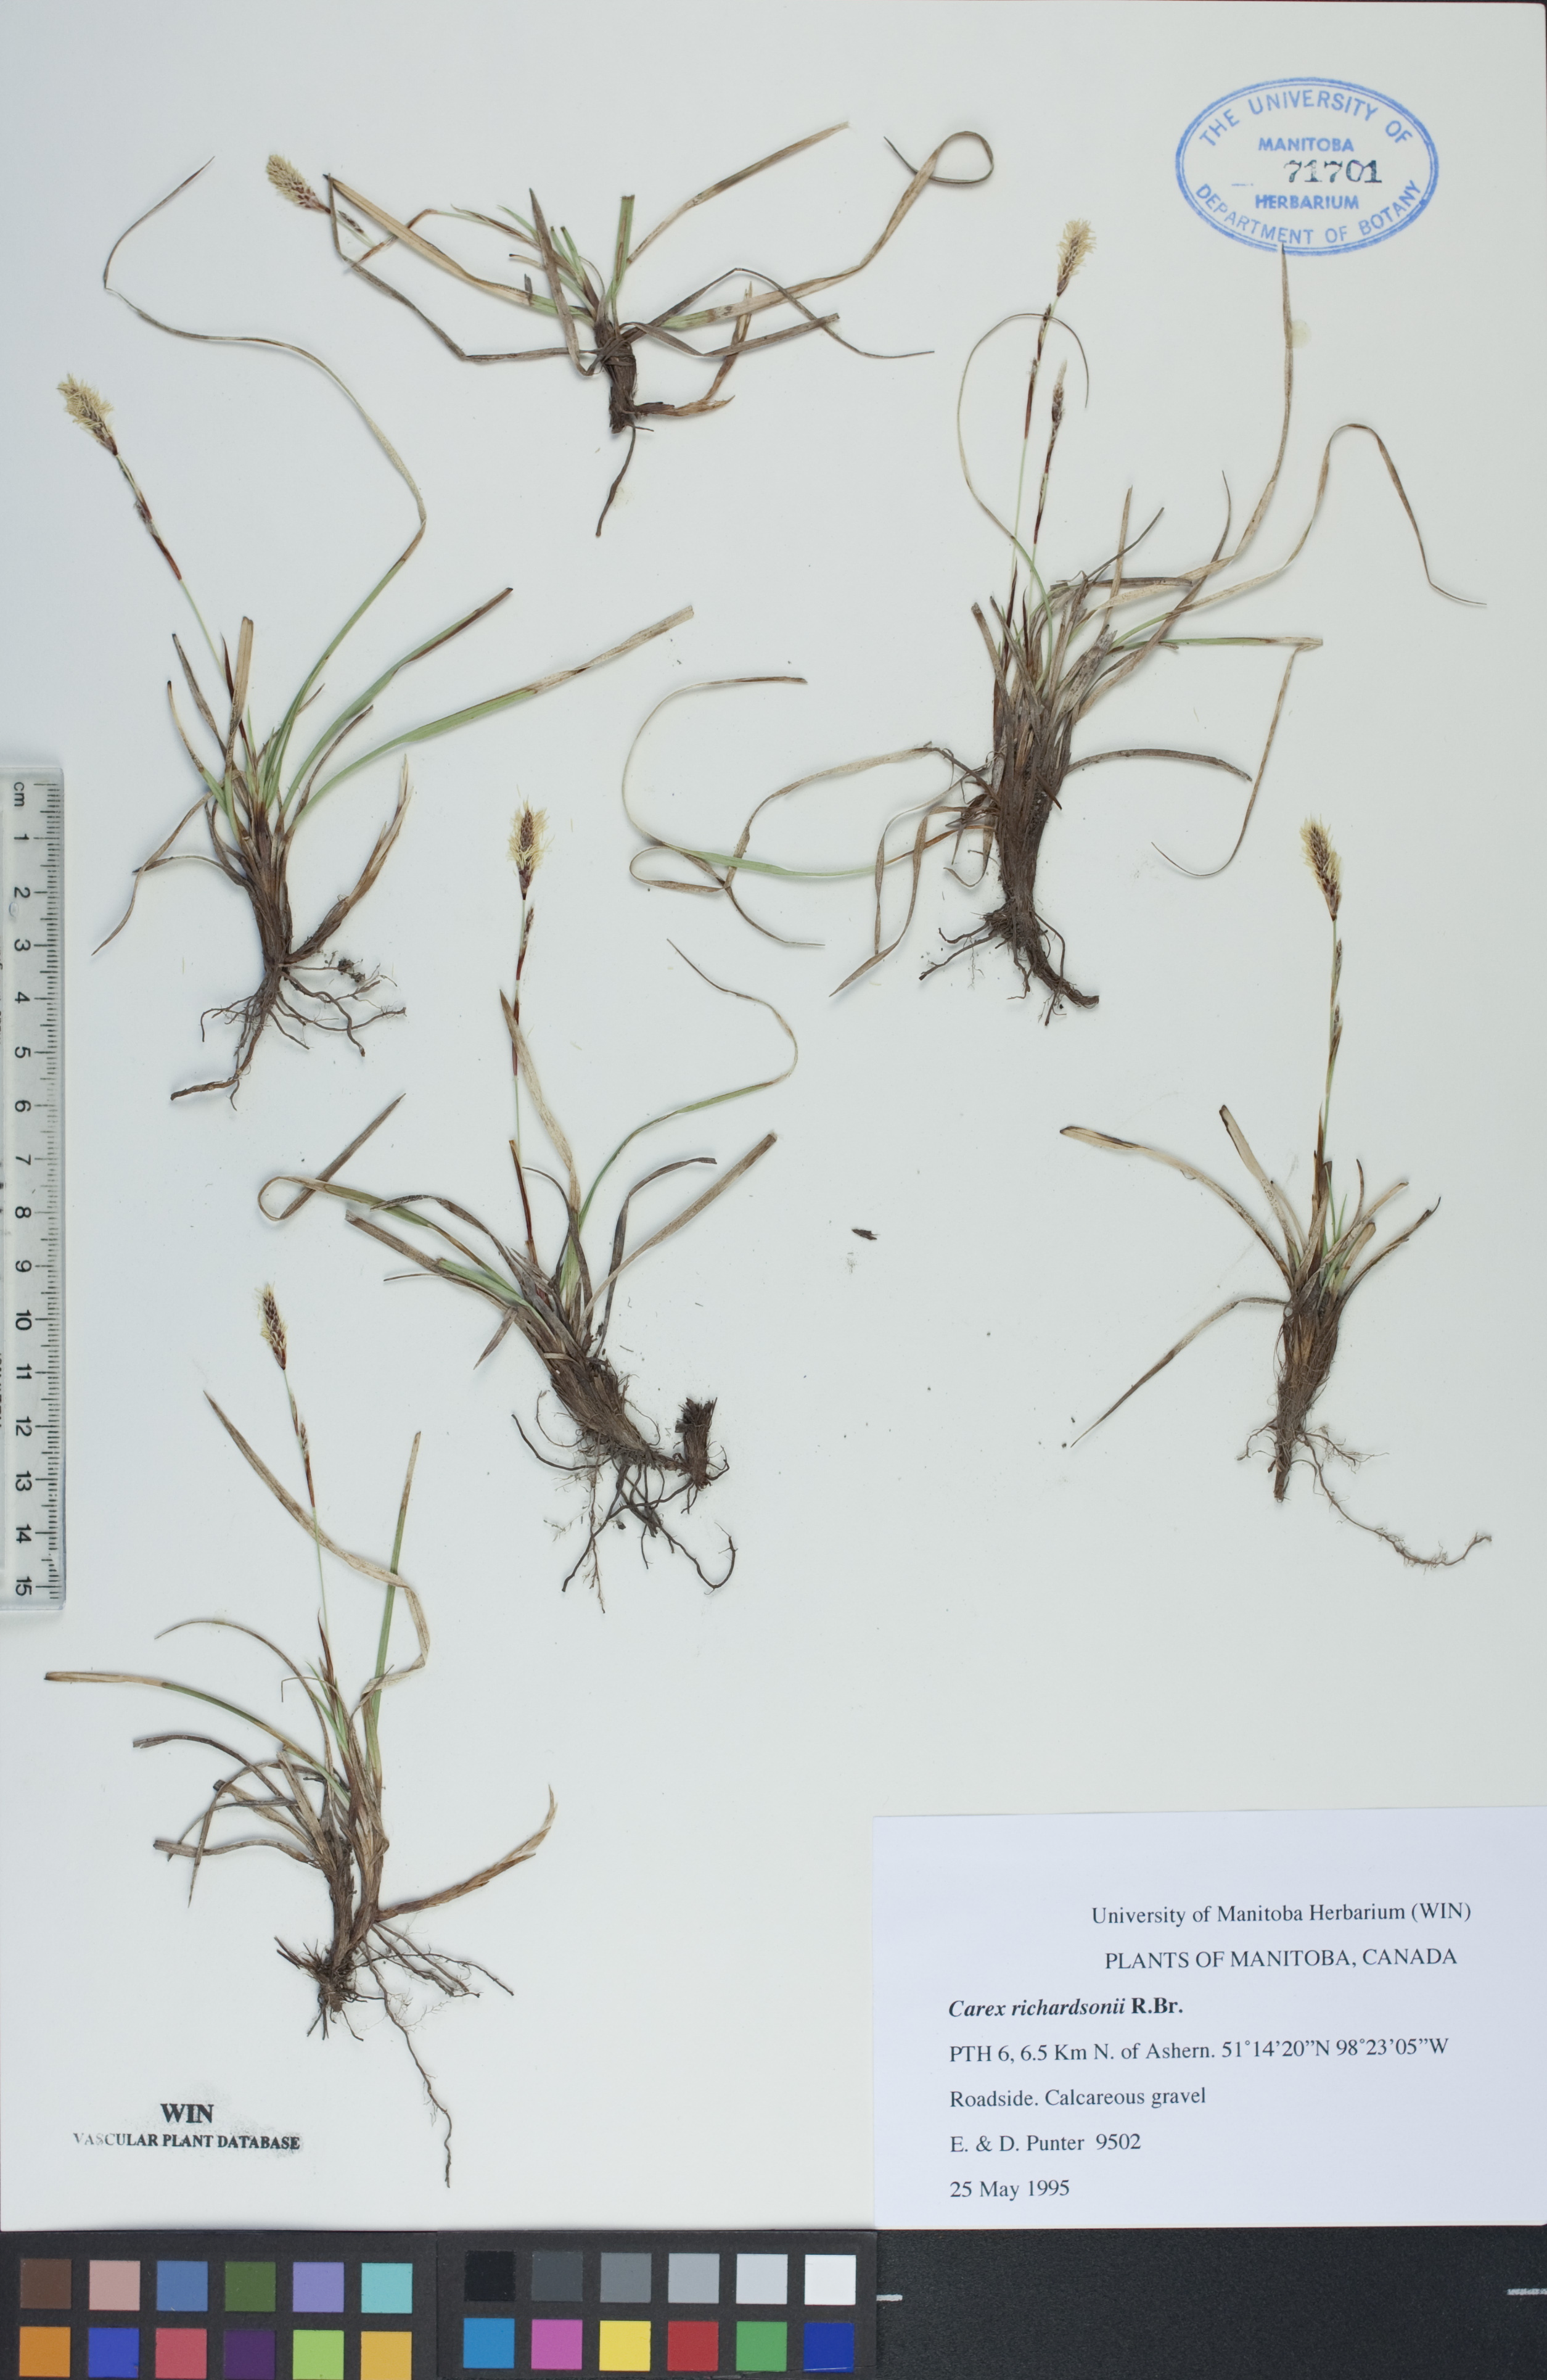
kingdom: Plantae
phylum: Tracheophyta
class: Liliopsida
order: Poales
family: Cyperaceae
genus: Carex
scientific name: Carex richardsonii
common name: Prairie hummock sedge
